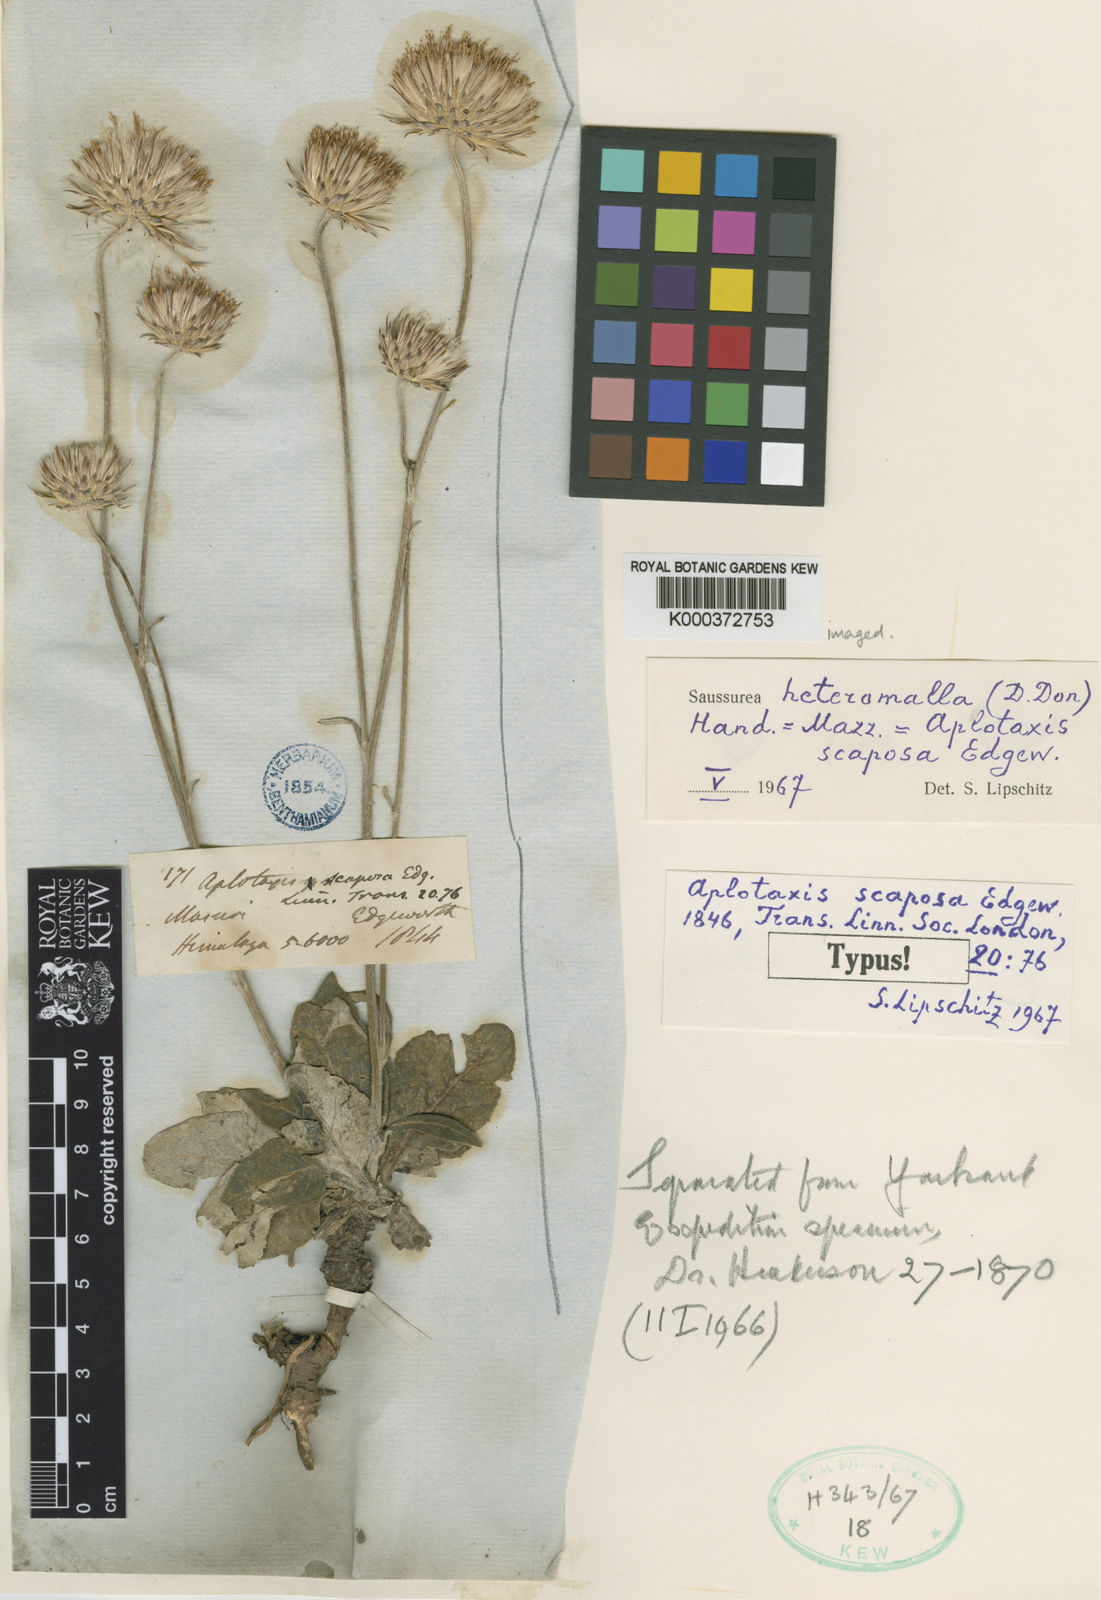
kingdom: Plantae
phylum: Tracheophyta
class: Magnoliopsida
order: Asterales
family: Asteraceae
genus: Jurinea
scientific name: Jurinea heteromalla
